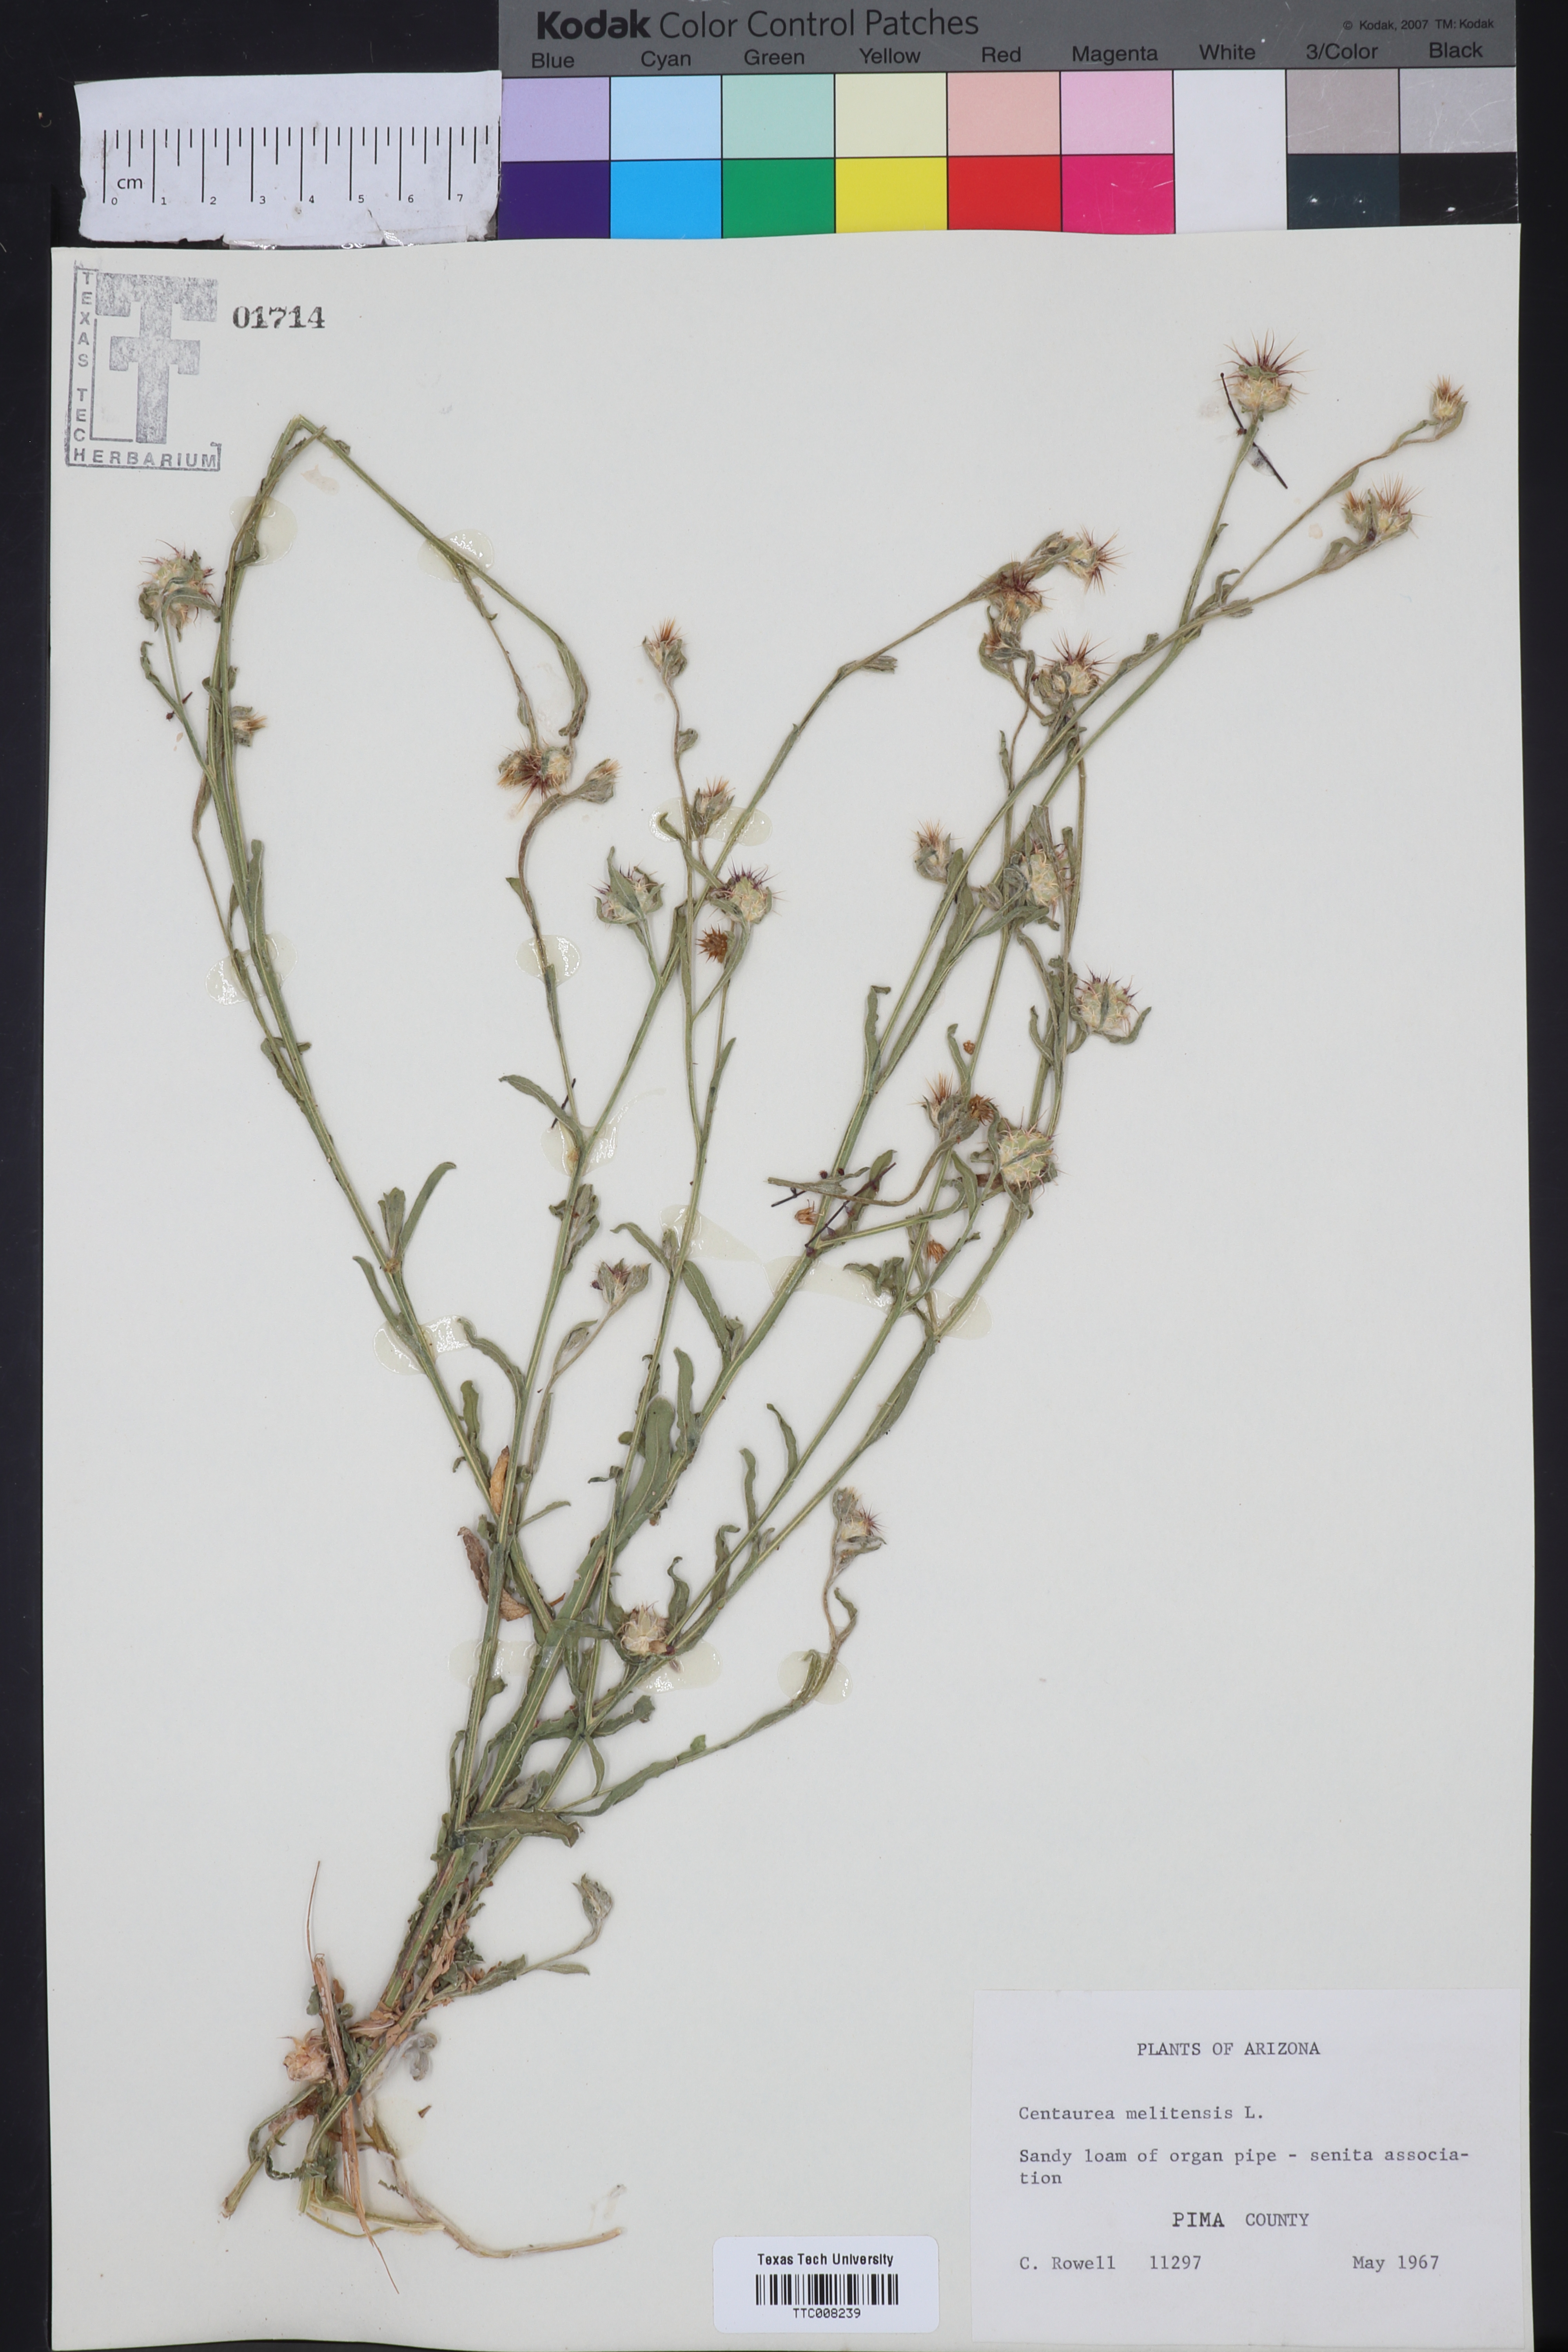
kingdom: Plantae
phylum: Tracheophyta
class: Magnoliopsida
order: Asterales
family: Asteraceae
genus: Centaurea
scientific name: Centaurea melitensis
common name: Maltese star-thistle
